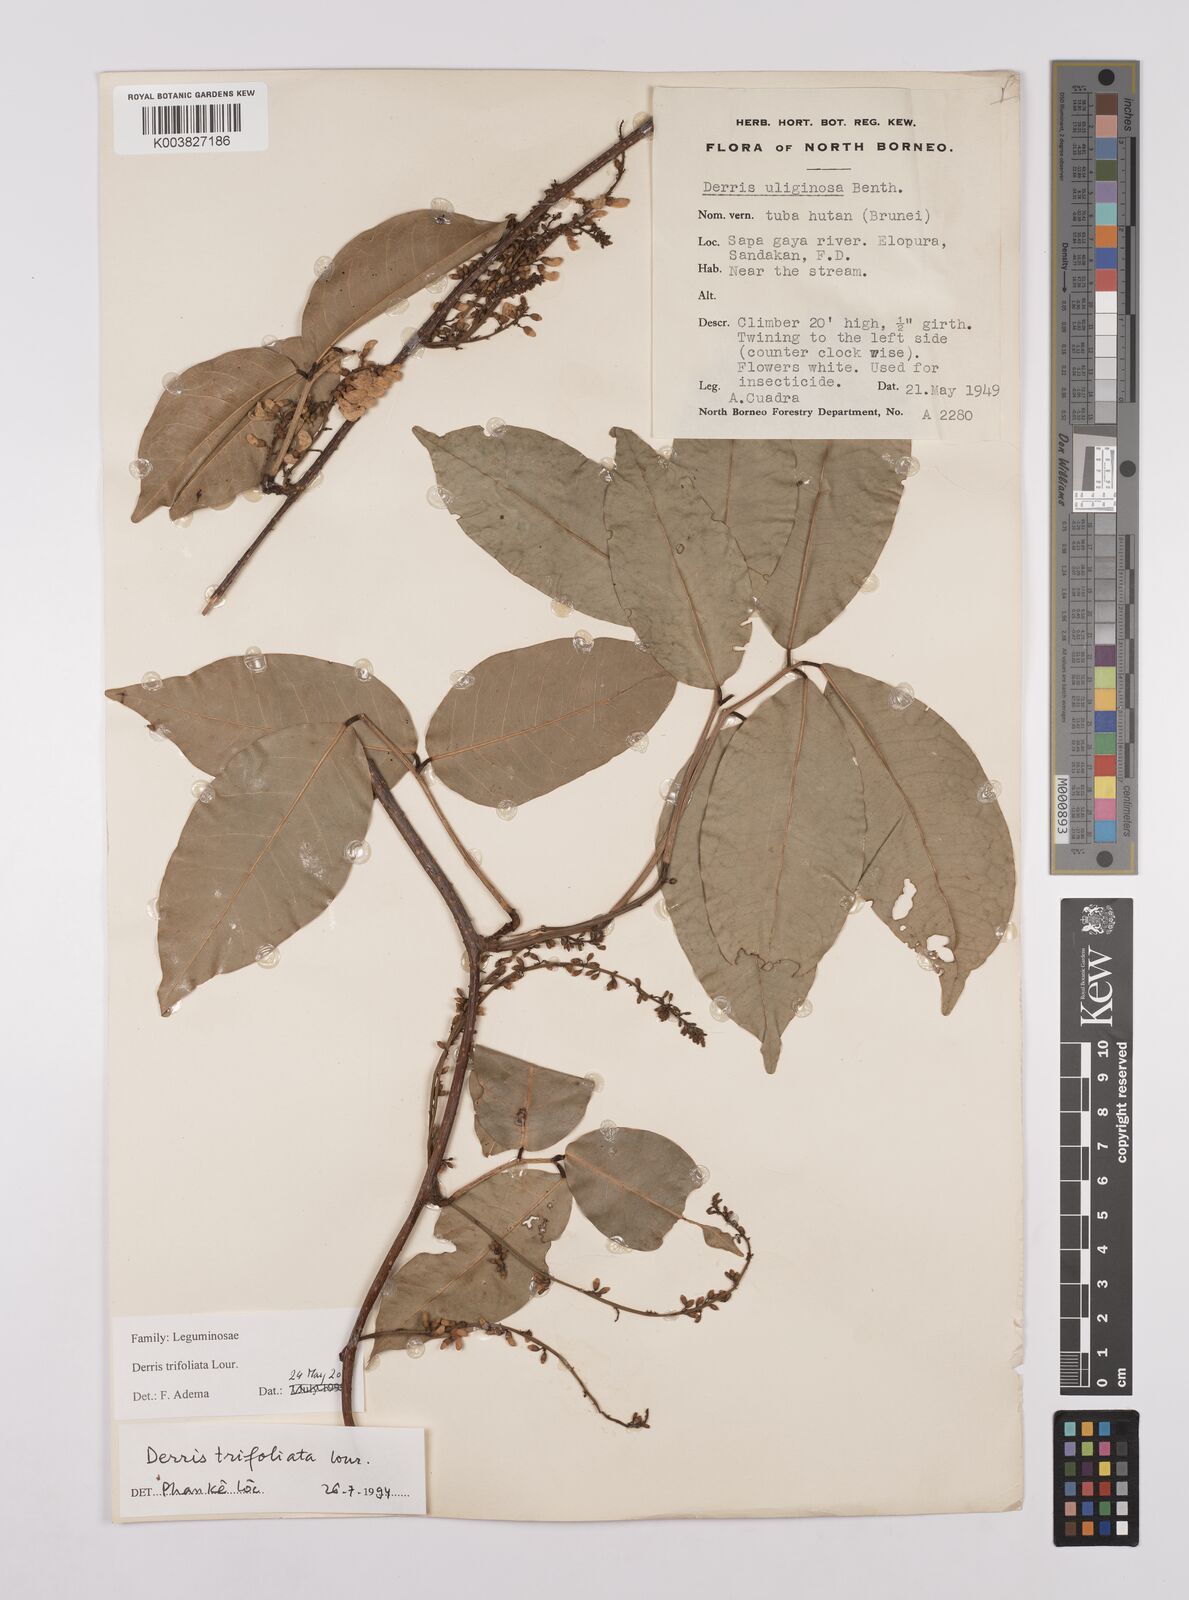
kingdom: Plantae
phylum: Tracheophyta
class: Magnoliopsida
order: Fabales
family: Fabaceae
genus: Derris
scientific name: Derris trifoliata
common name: Three-leaf derris
